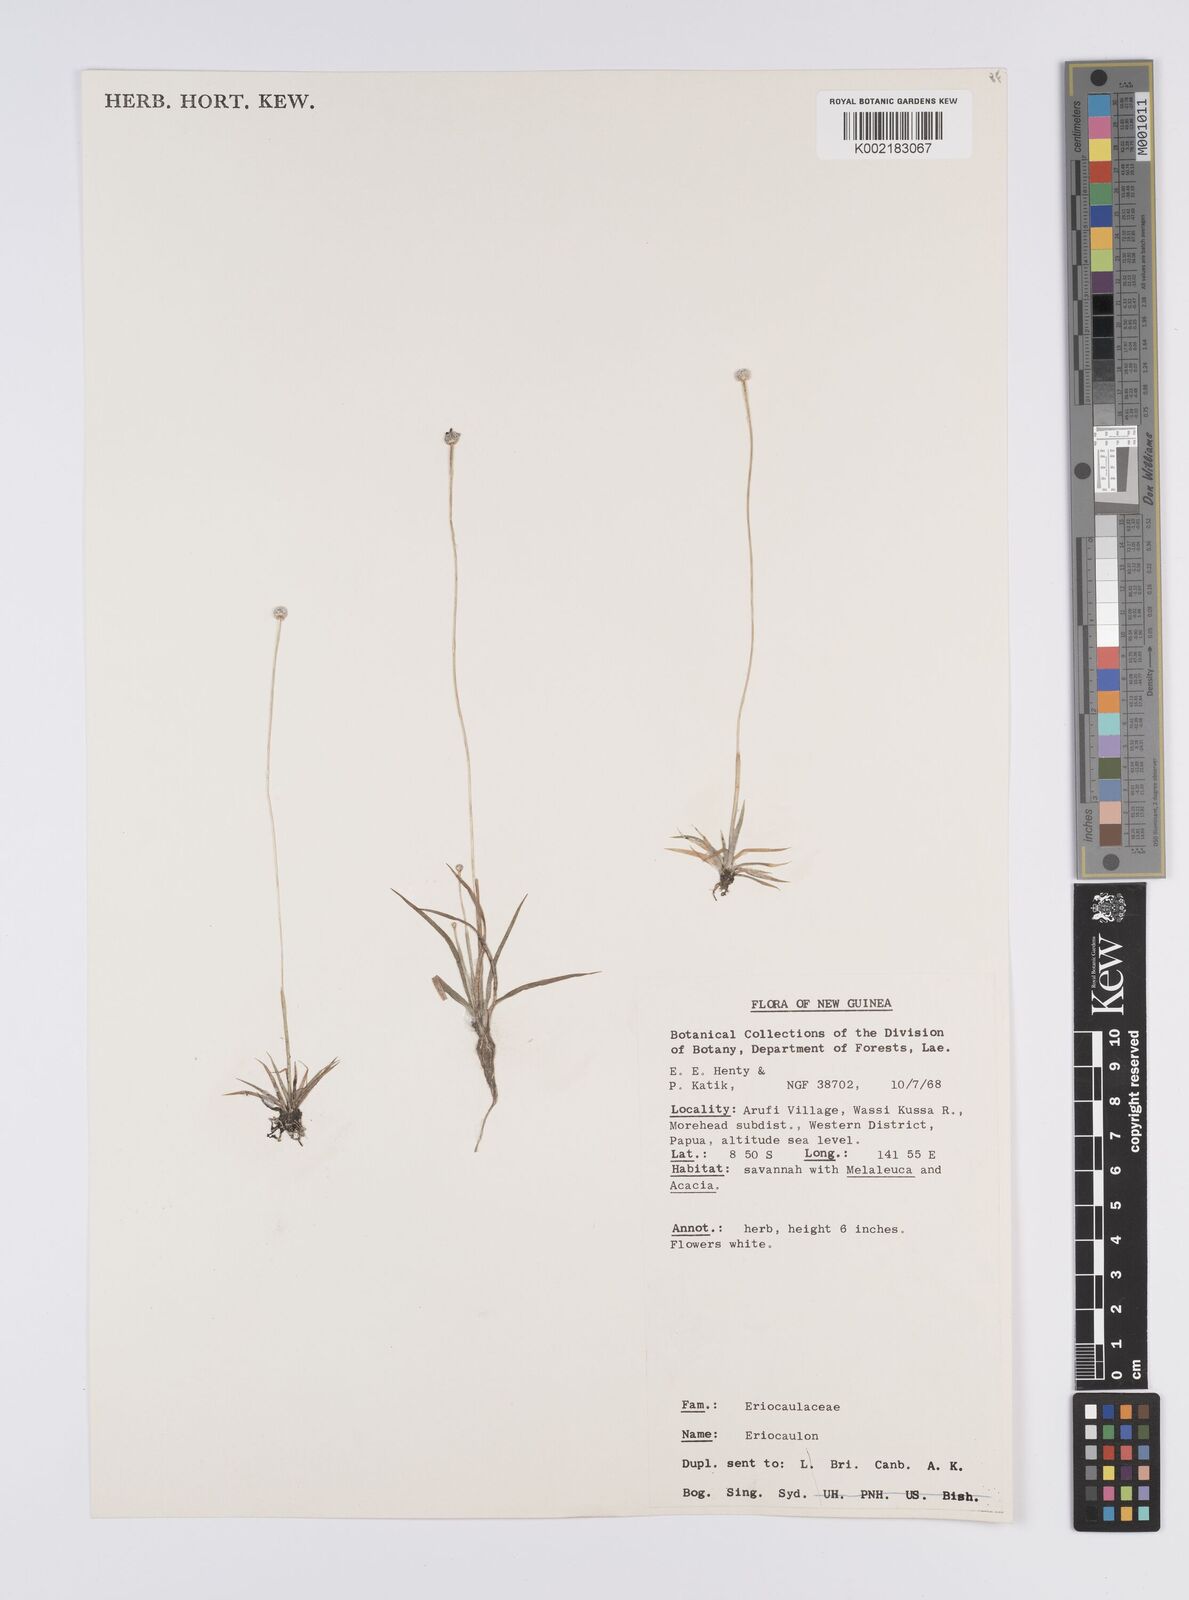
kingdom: Plantae
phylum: Tracheophyta
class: Liliopsida
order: Poales
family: Eriocaulaceae
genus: Eriocaulon
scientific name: Eriocaulon
